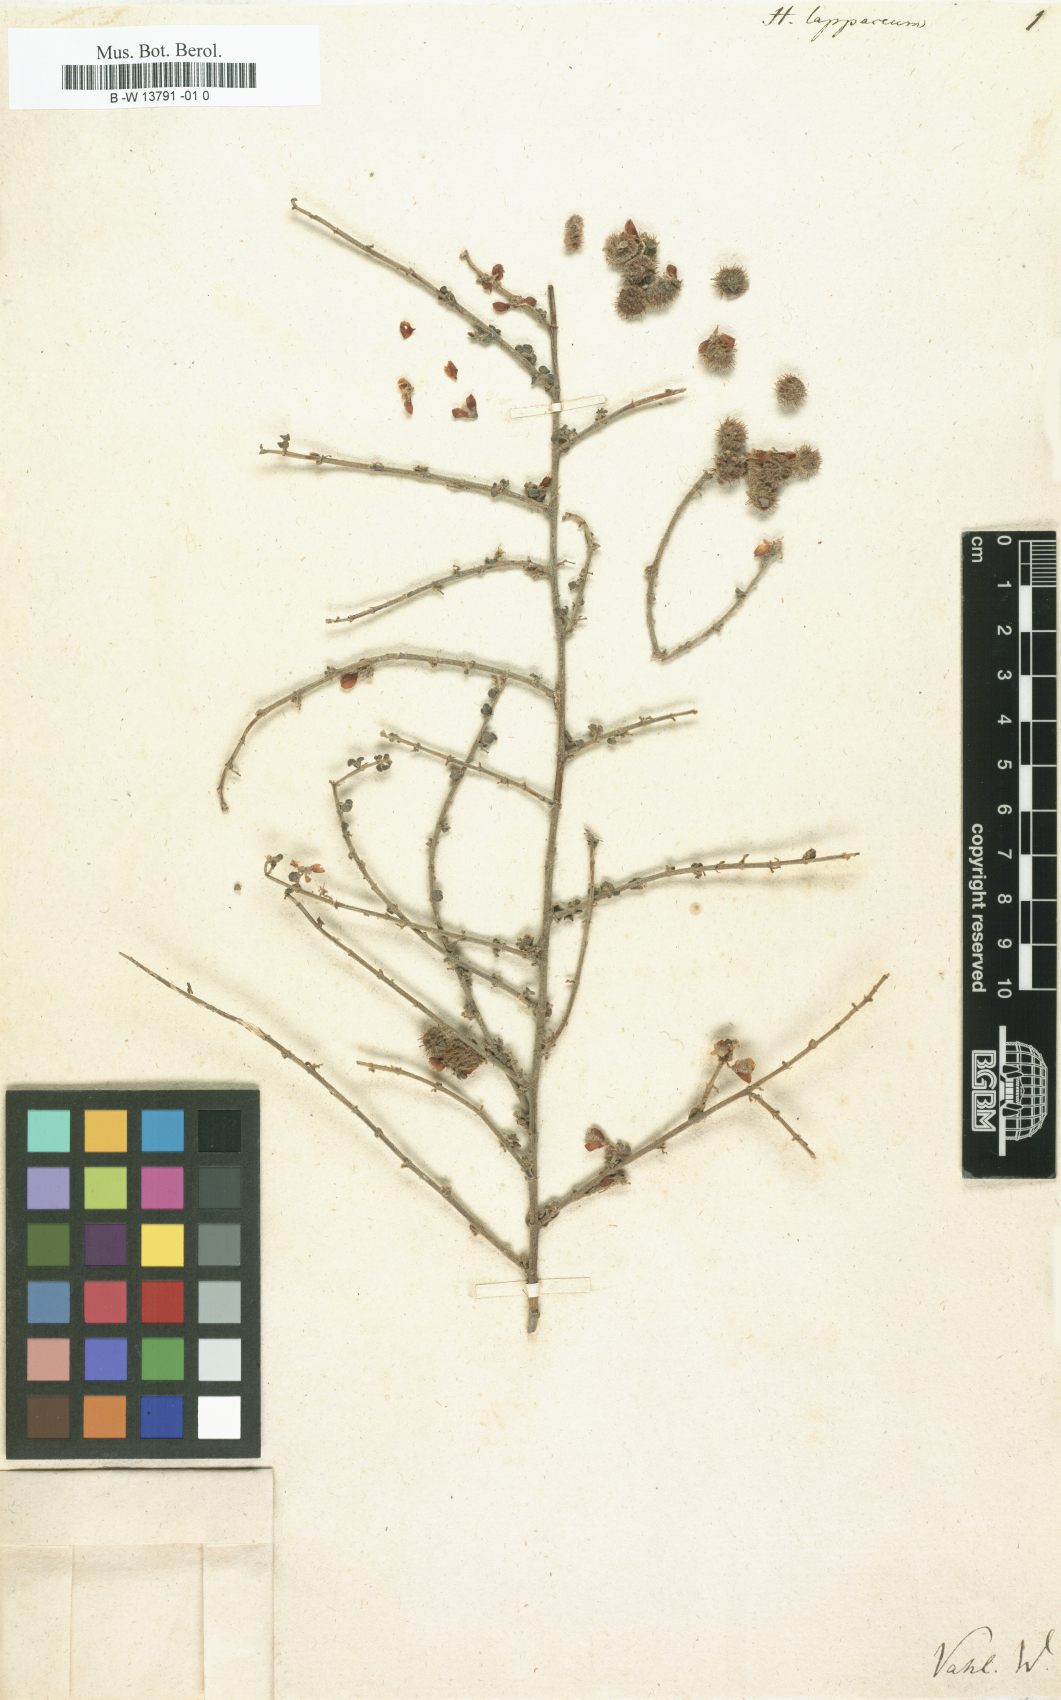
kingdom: Plantae
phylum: Tracheophyta
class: Magnoliopsida
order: Fabales
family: Fabaceae
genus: Taverniera
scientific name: Taverniera lappacea
